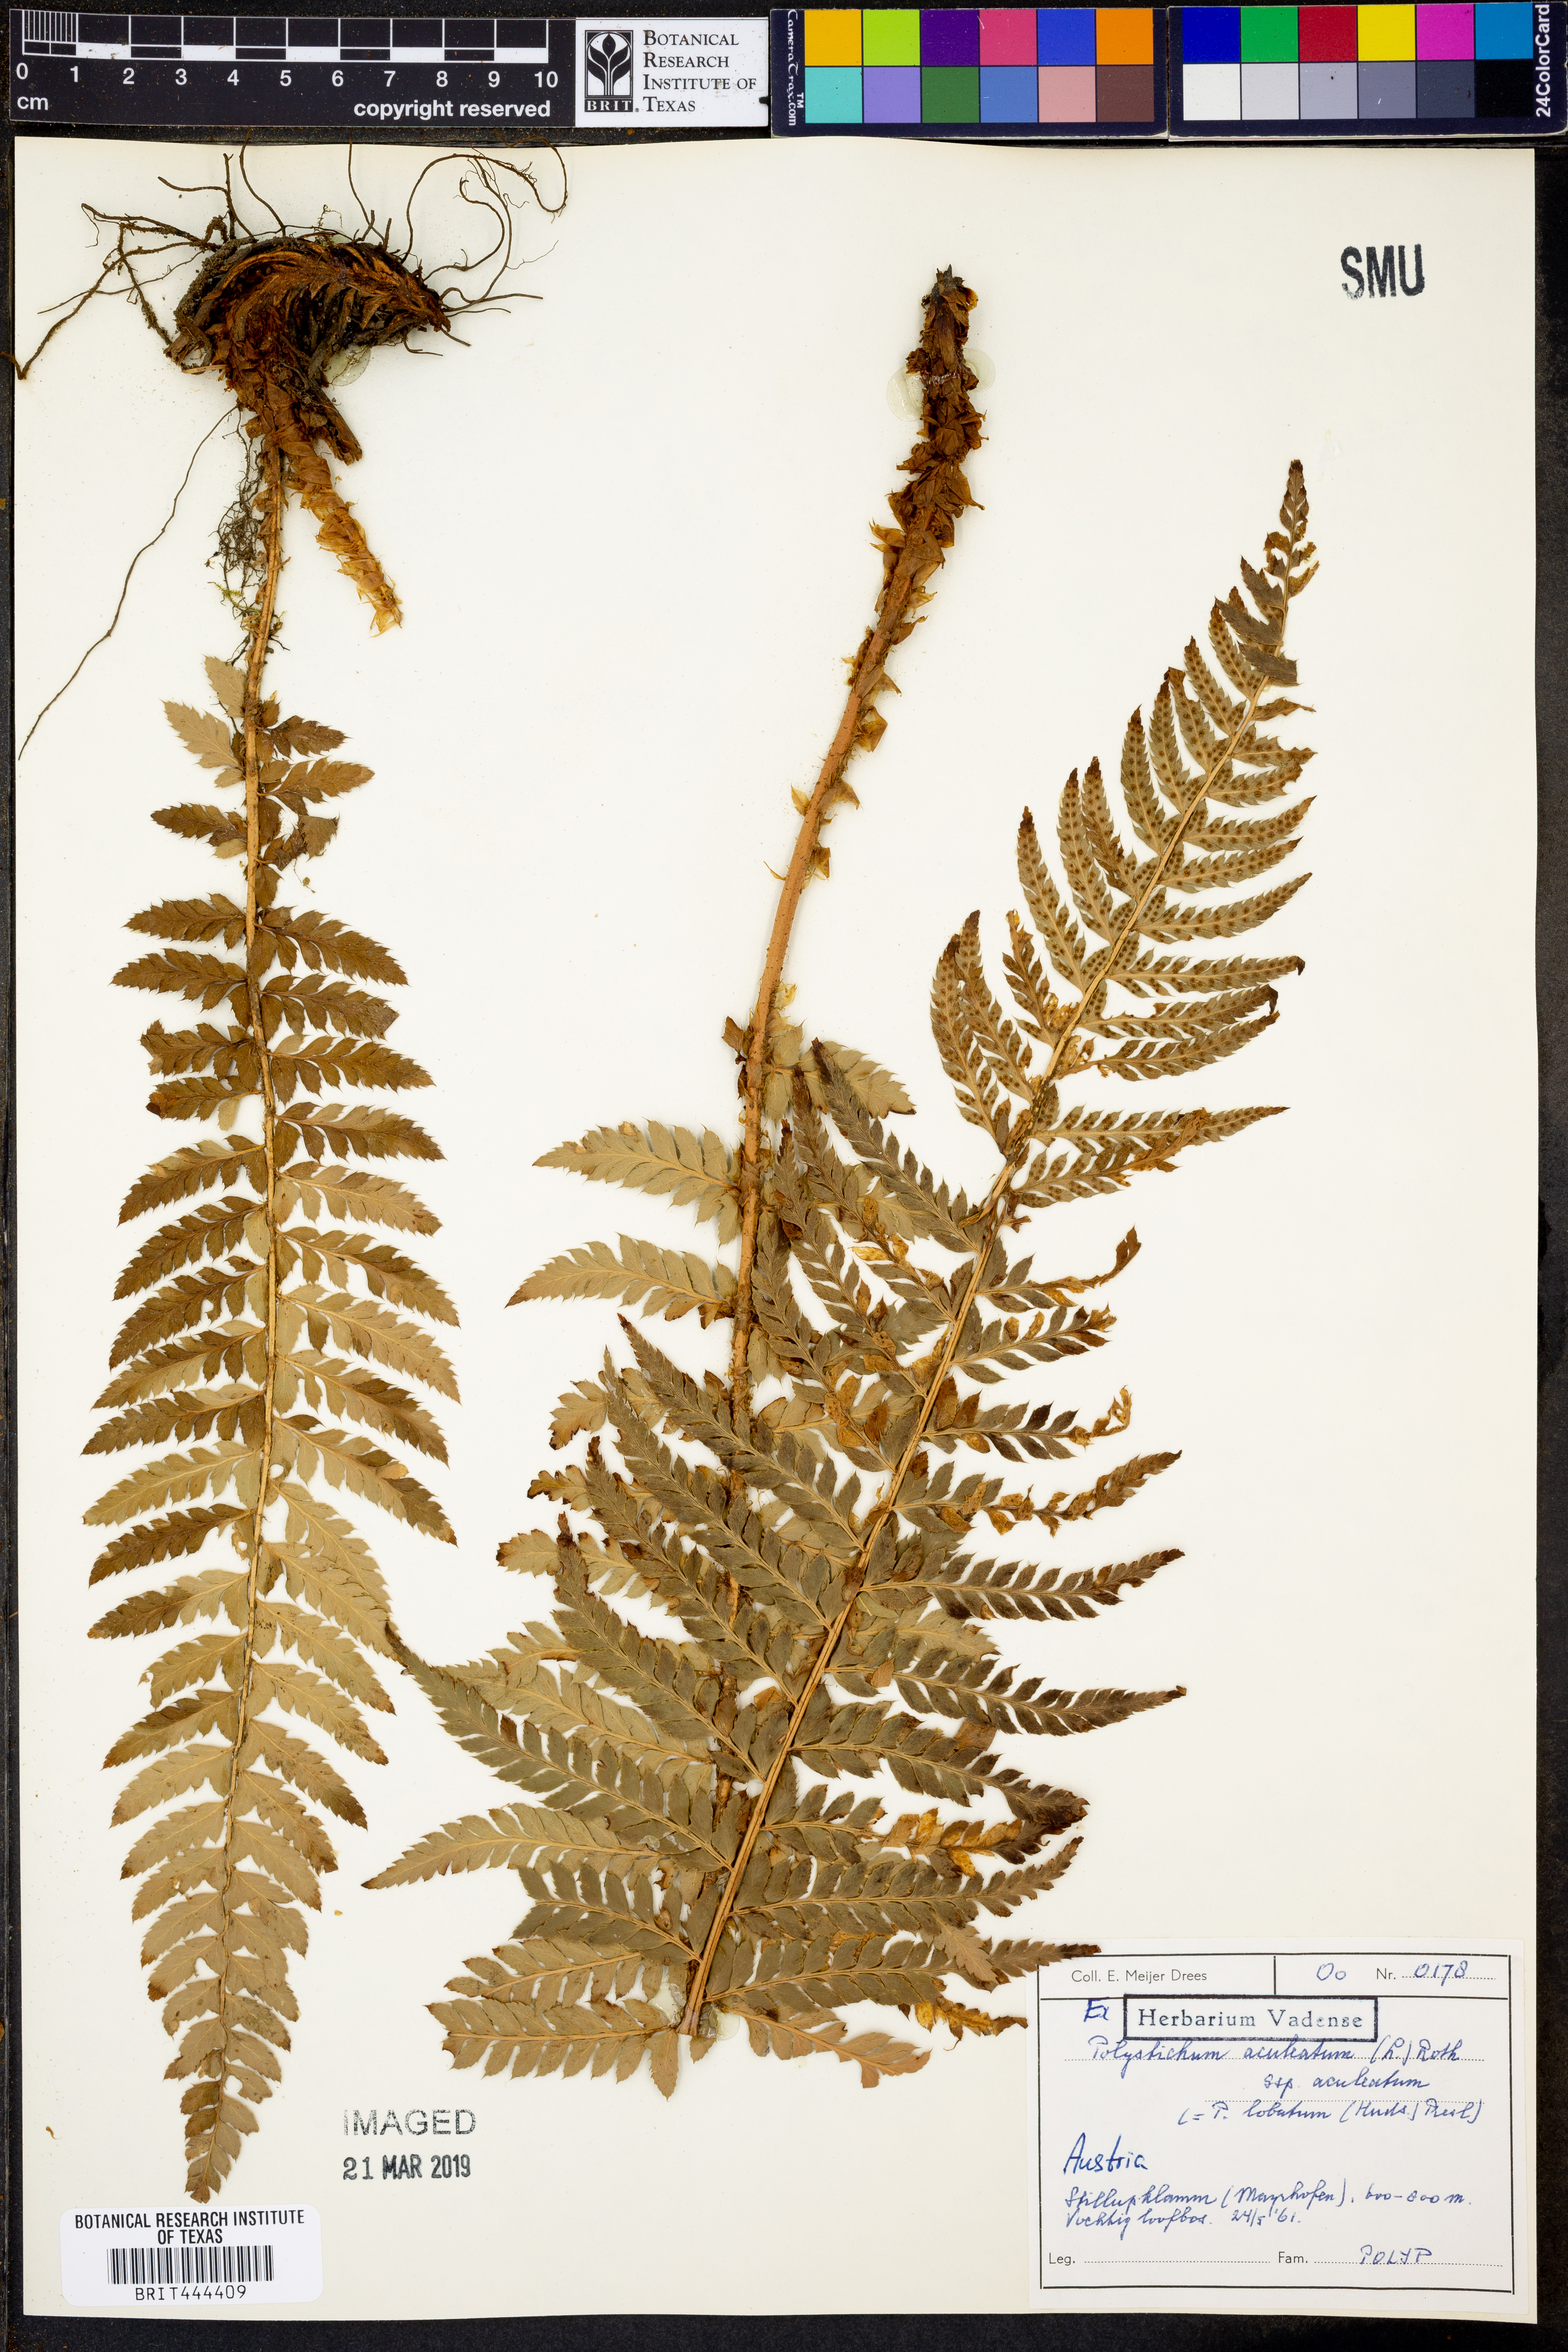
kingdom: Plantae
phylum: Tracheophyta
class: Polypodiopsida
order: Polypodiales
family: Dryopteridaceae
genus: Polystichum
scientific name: Polystichum aculeatum
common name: Hard shield-fern
